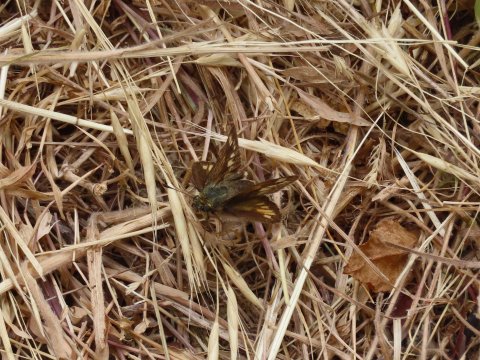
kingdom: Animalia
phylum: Arthropoda
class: Insecta
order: Lepidoptera
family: Hesperiidae
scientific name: Hesperiidae
